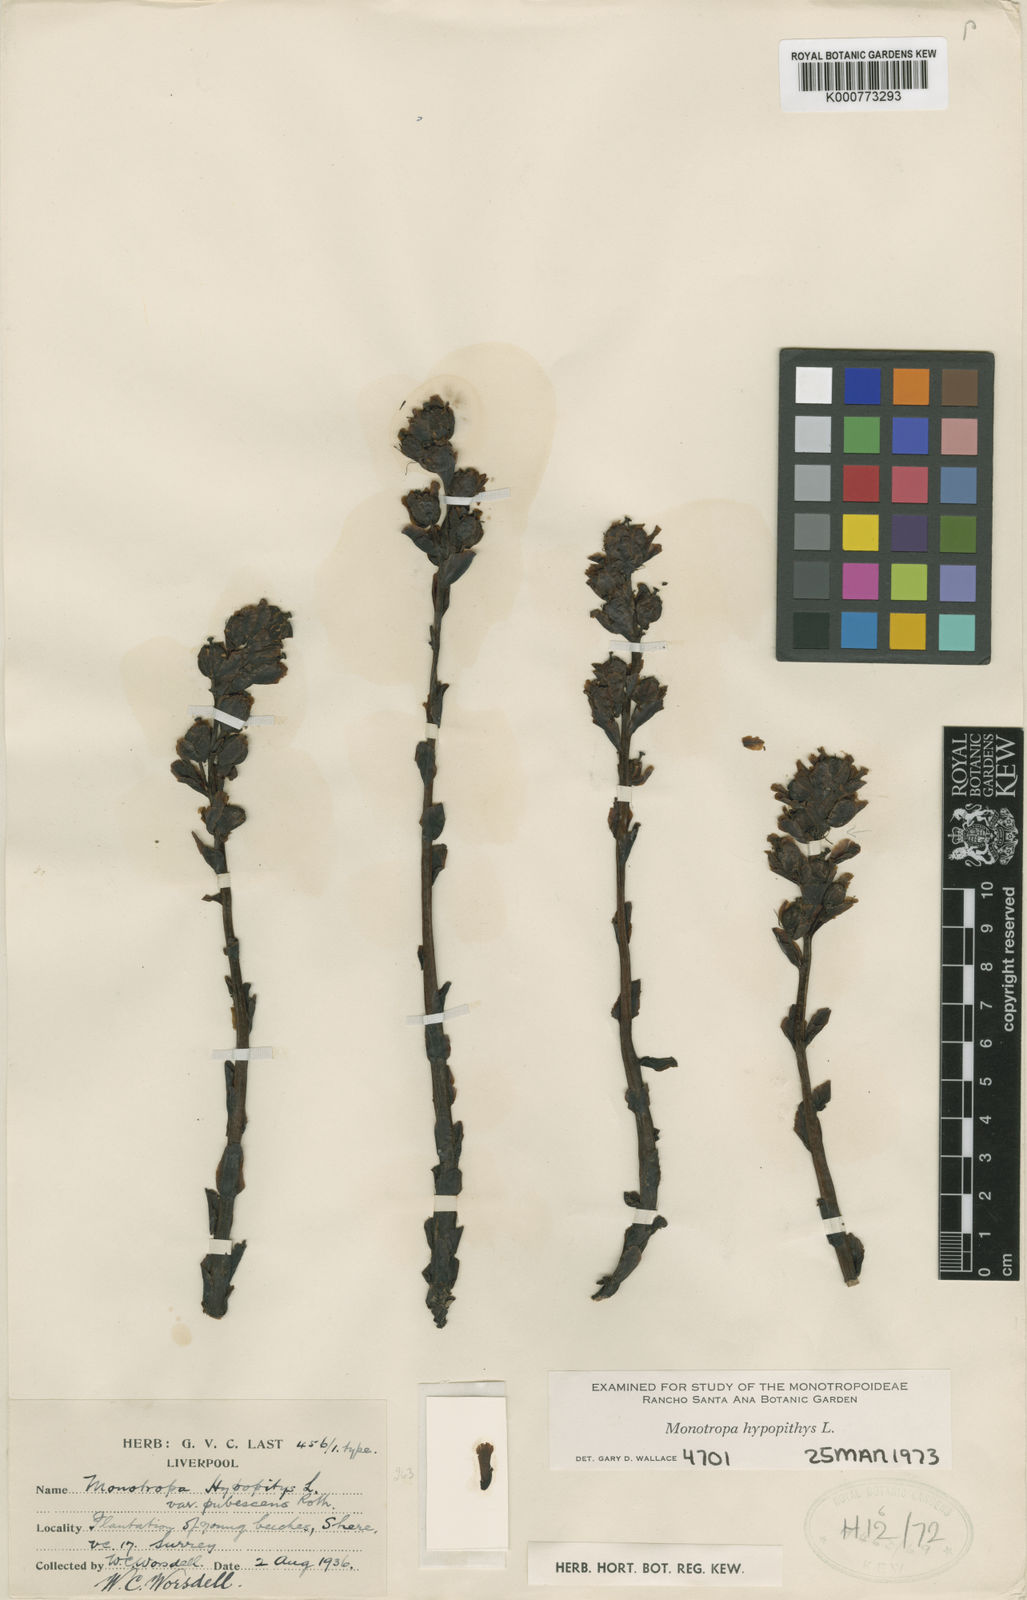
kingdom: Plantae
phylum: Tracheophyta
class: Magnoliopsida
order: Ericales
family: Ericaceae
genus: Monotropa
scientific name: Monotropa
